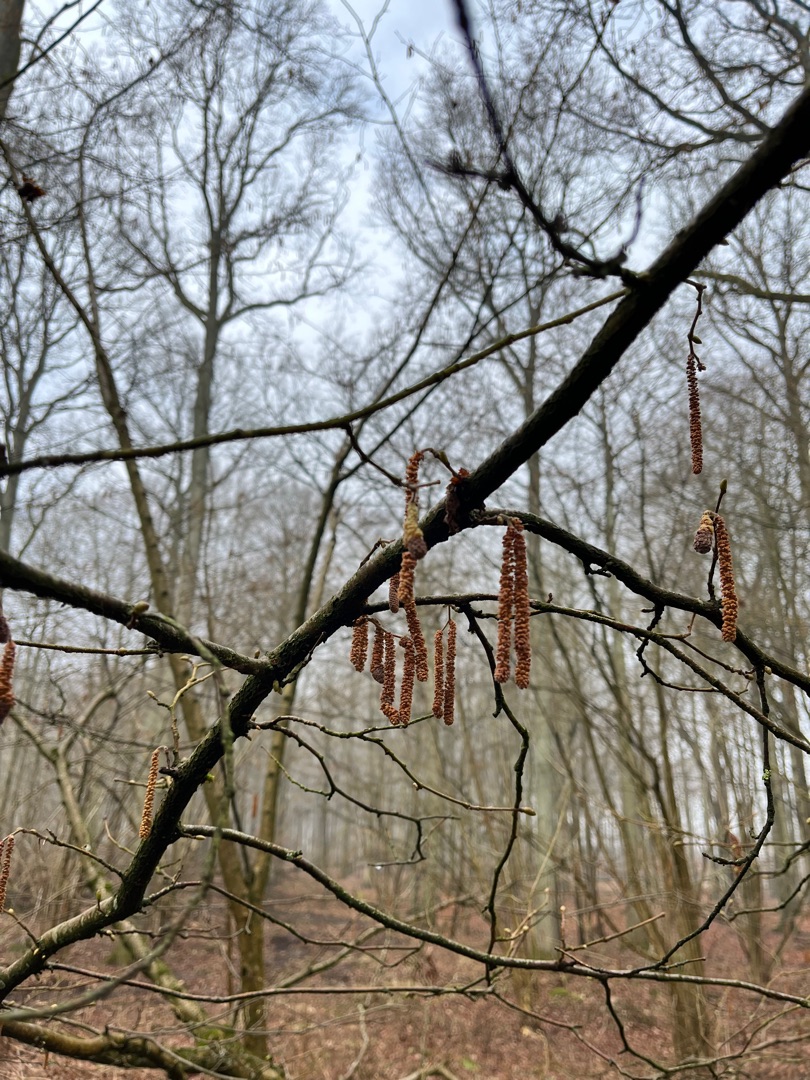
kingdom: Plantae
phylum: Tracheophyta
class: Magnoliopsida
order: Fagales
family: Betulaceae
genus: Corylus
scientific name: Corylus avellana
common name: Hassel
